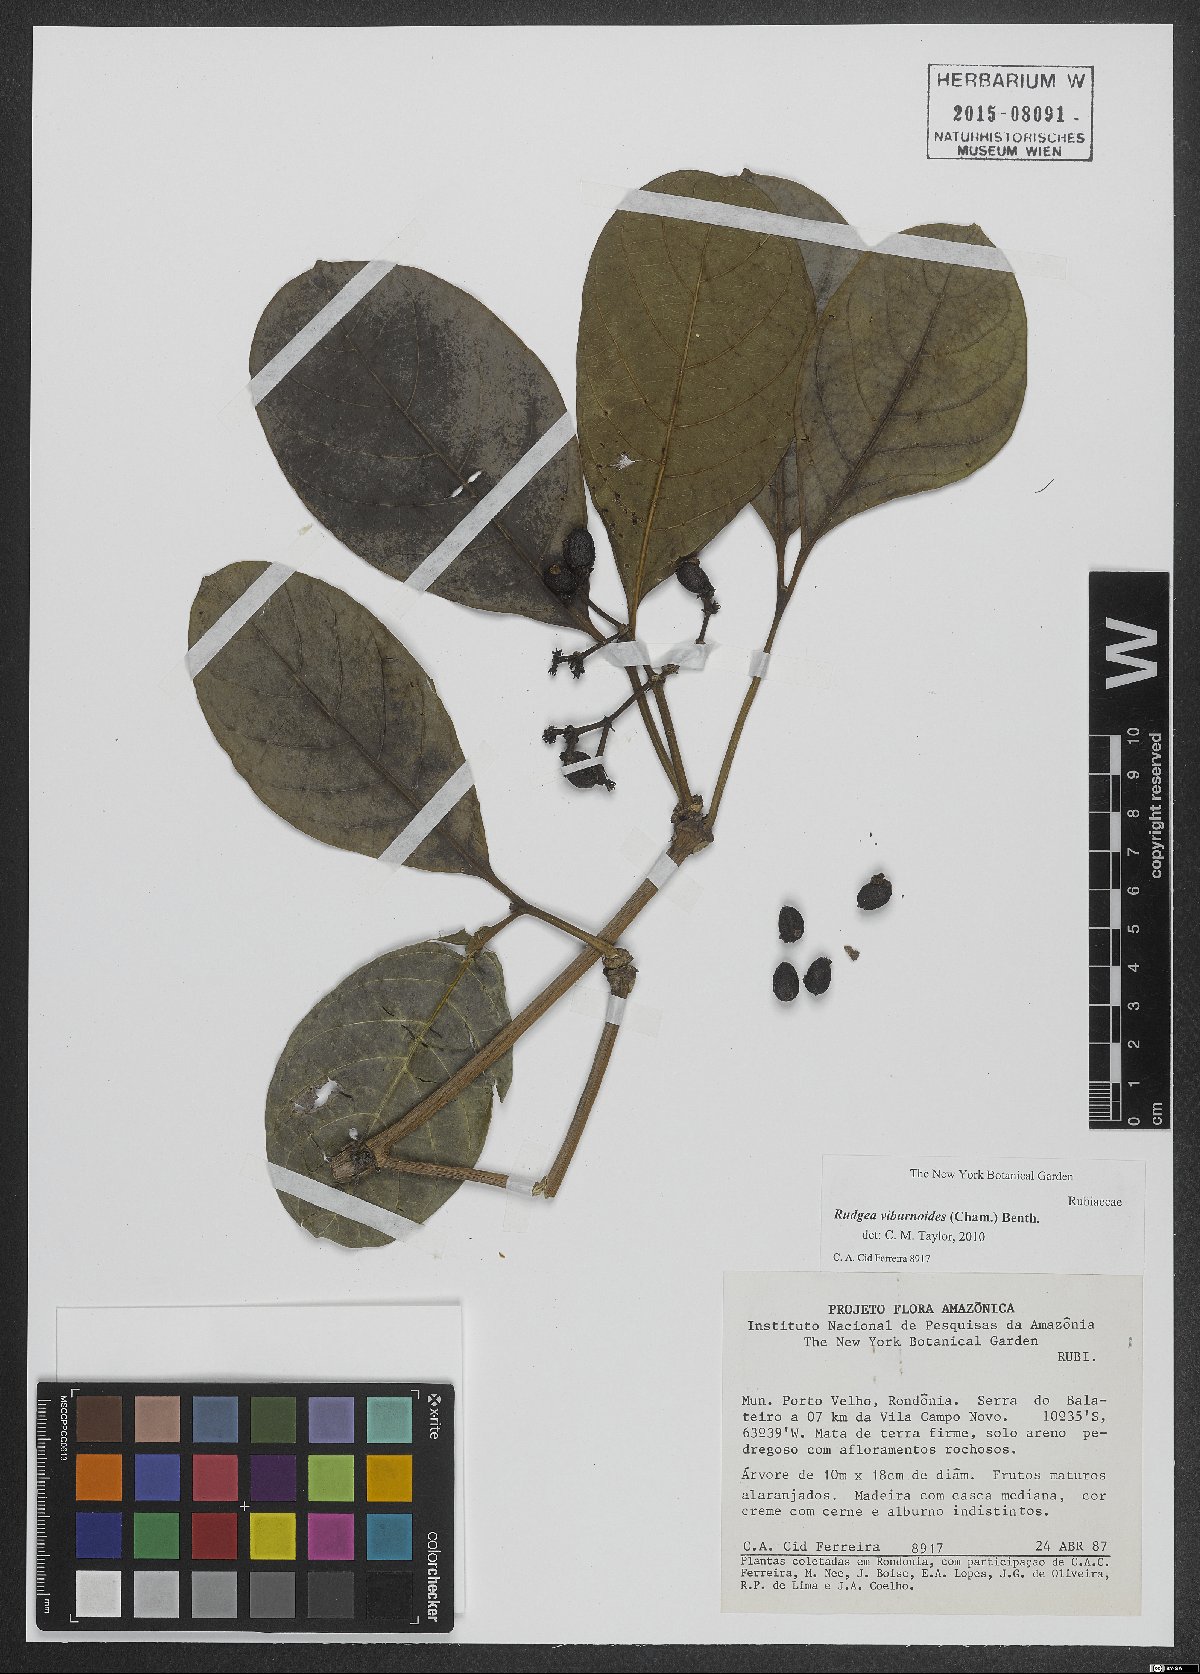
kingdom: Plantae
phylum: Tracheophyta
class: Magnoliopsida
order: Gentianales
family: Rubiaceae
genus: Rudgea
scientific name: Rudgea viburnoides
